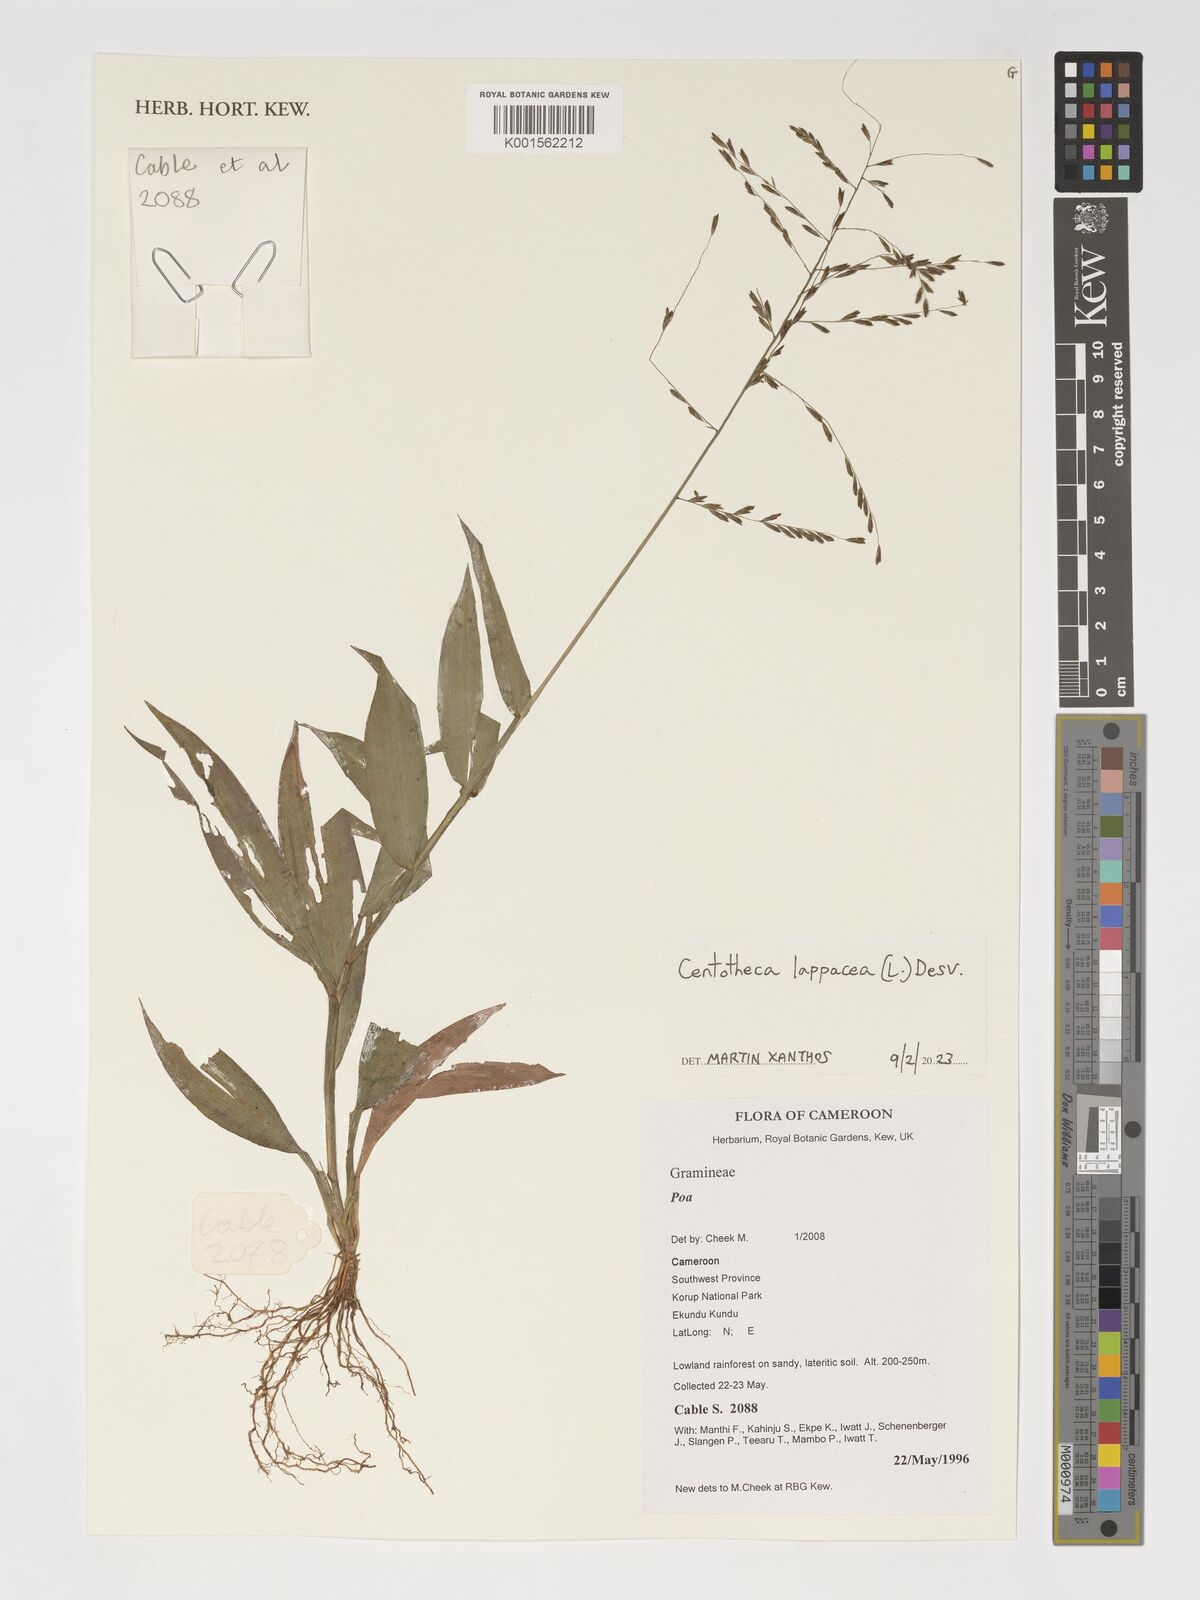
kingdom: Plantae
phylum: Tracheophyta
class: Liliopsida
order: Poales
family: Poaceae
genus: Centotheca
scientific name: Centotheca lappacea
